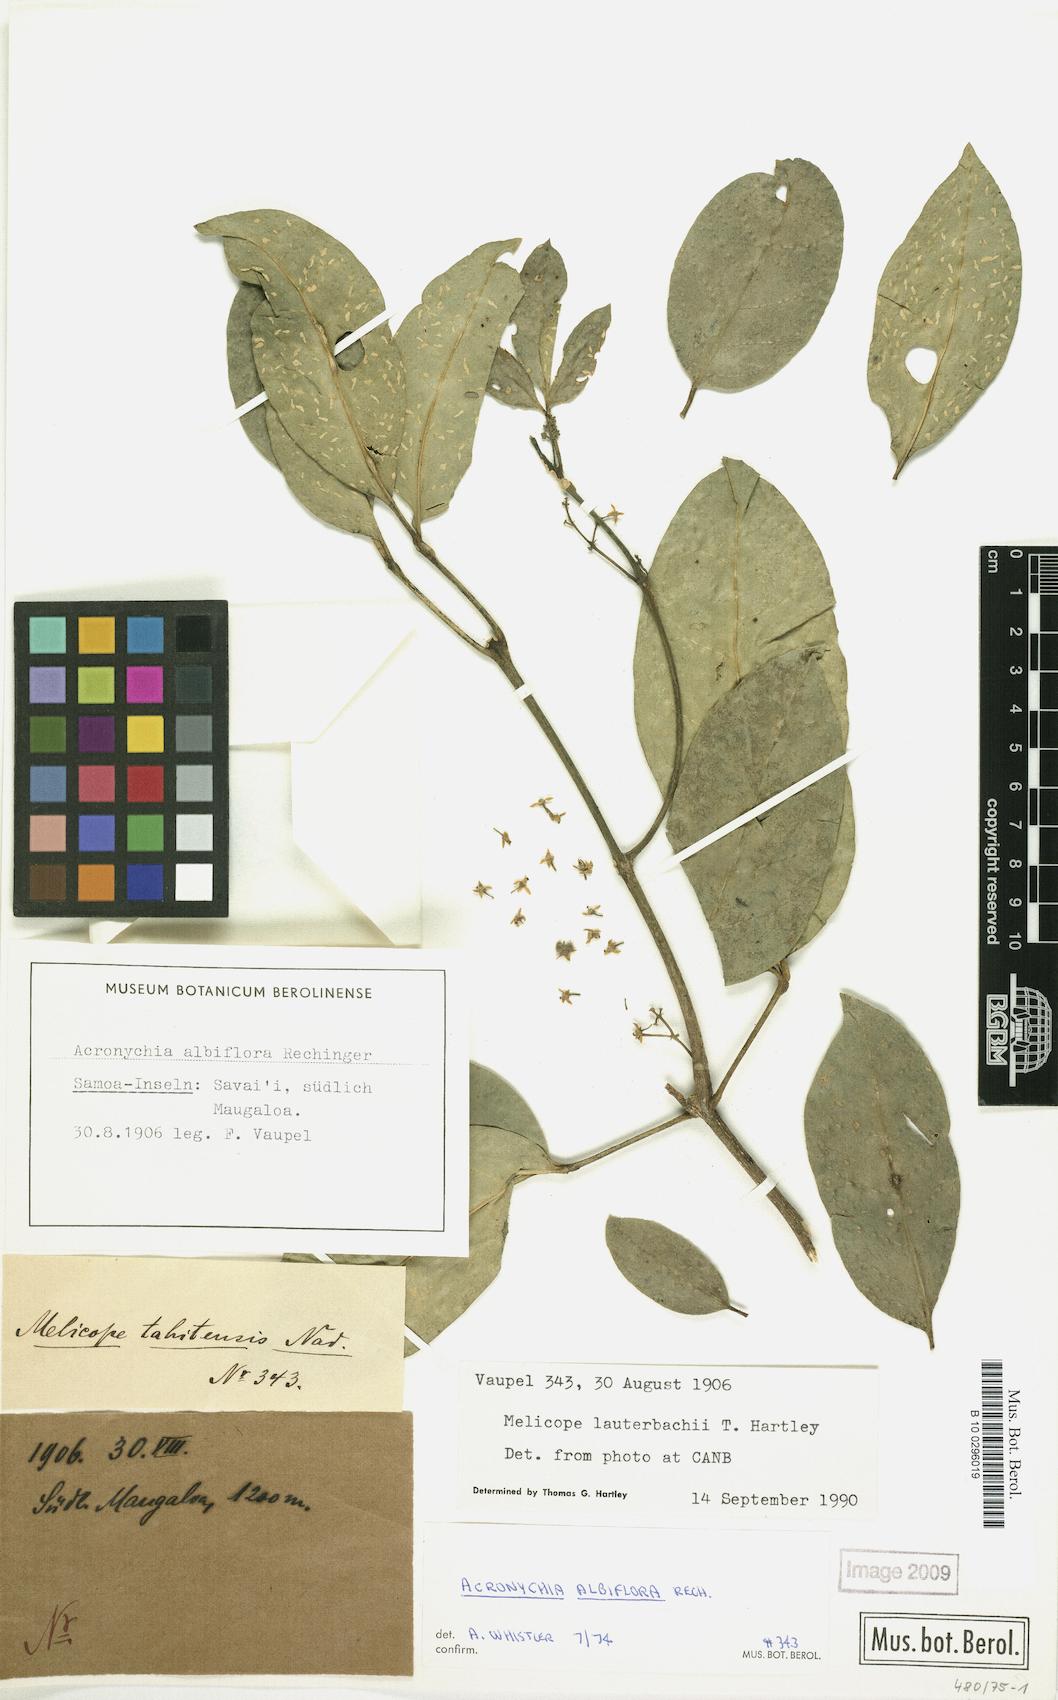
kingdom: Plantae
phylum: Tracheophyta
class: Magnoliopsida
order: Sapindales
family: Rutaceae
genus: Melicope
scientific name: Melicope lauterbachii
